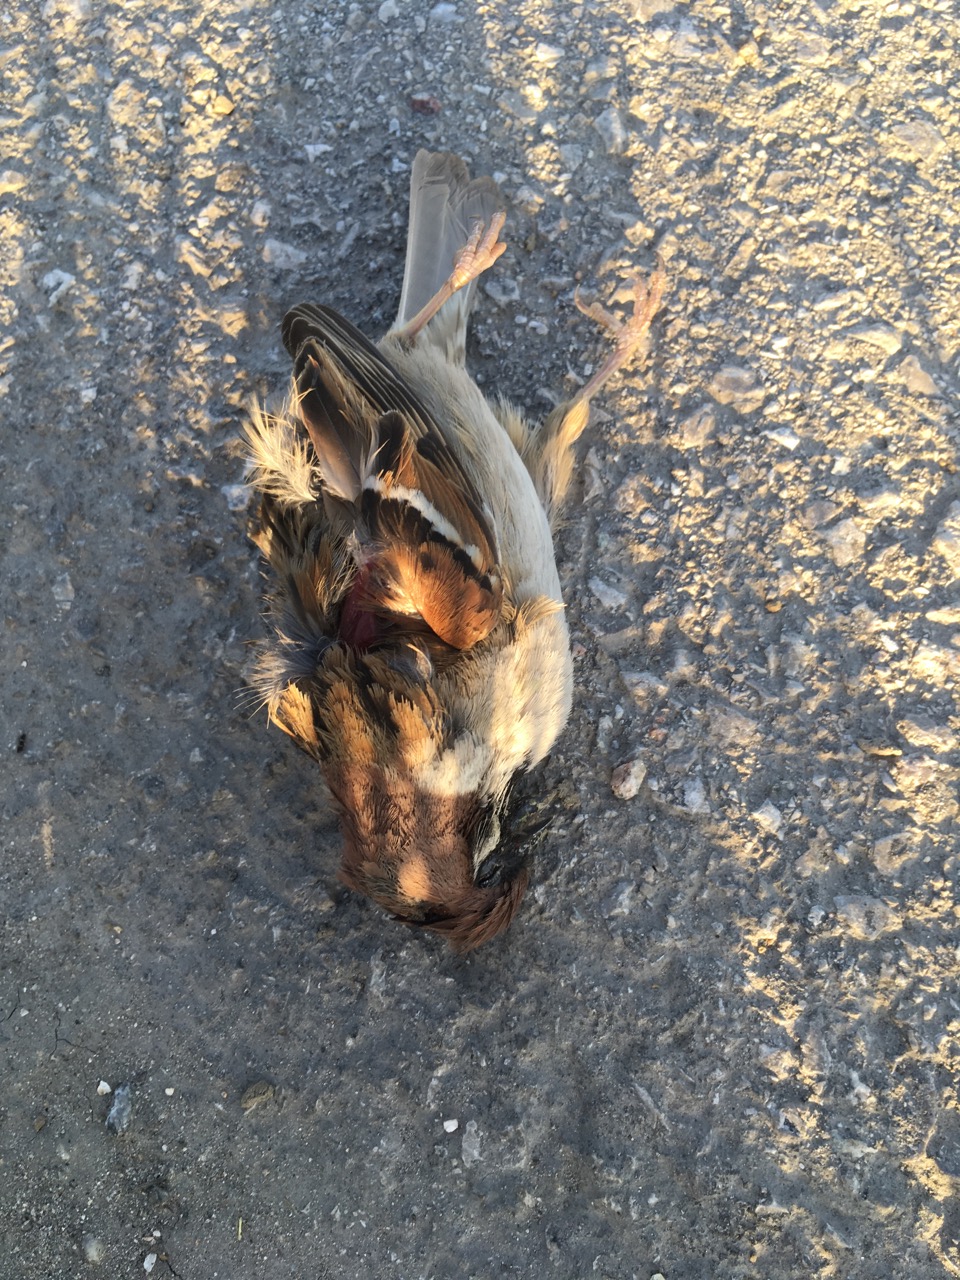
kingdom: Animalia
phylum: Chordata
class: Aves
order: Passeriformes
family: Passeridae
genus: Passer
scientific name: Passer montanus
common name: Eurasian tree sparrow
